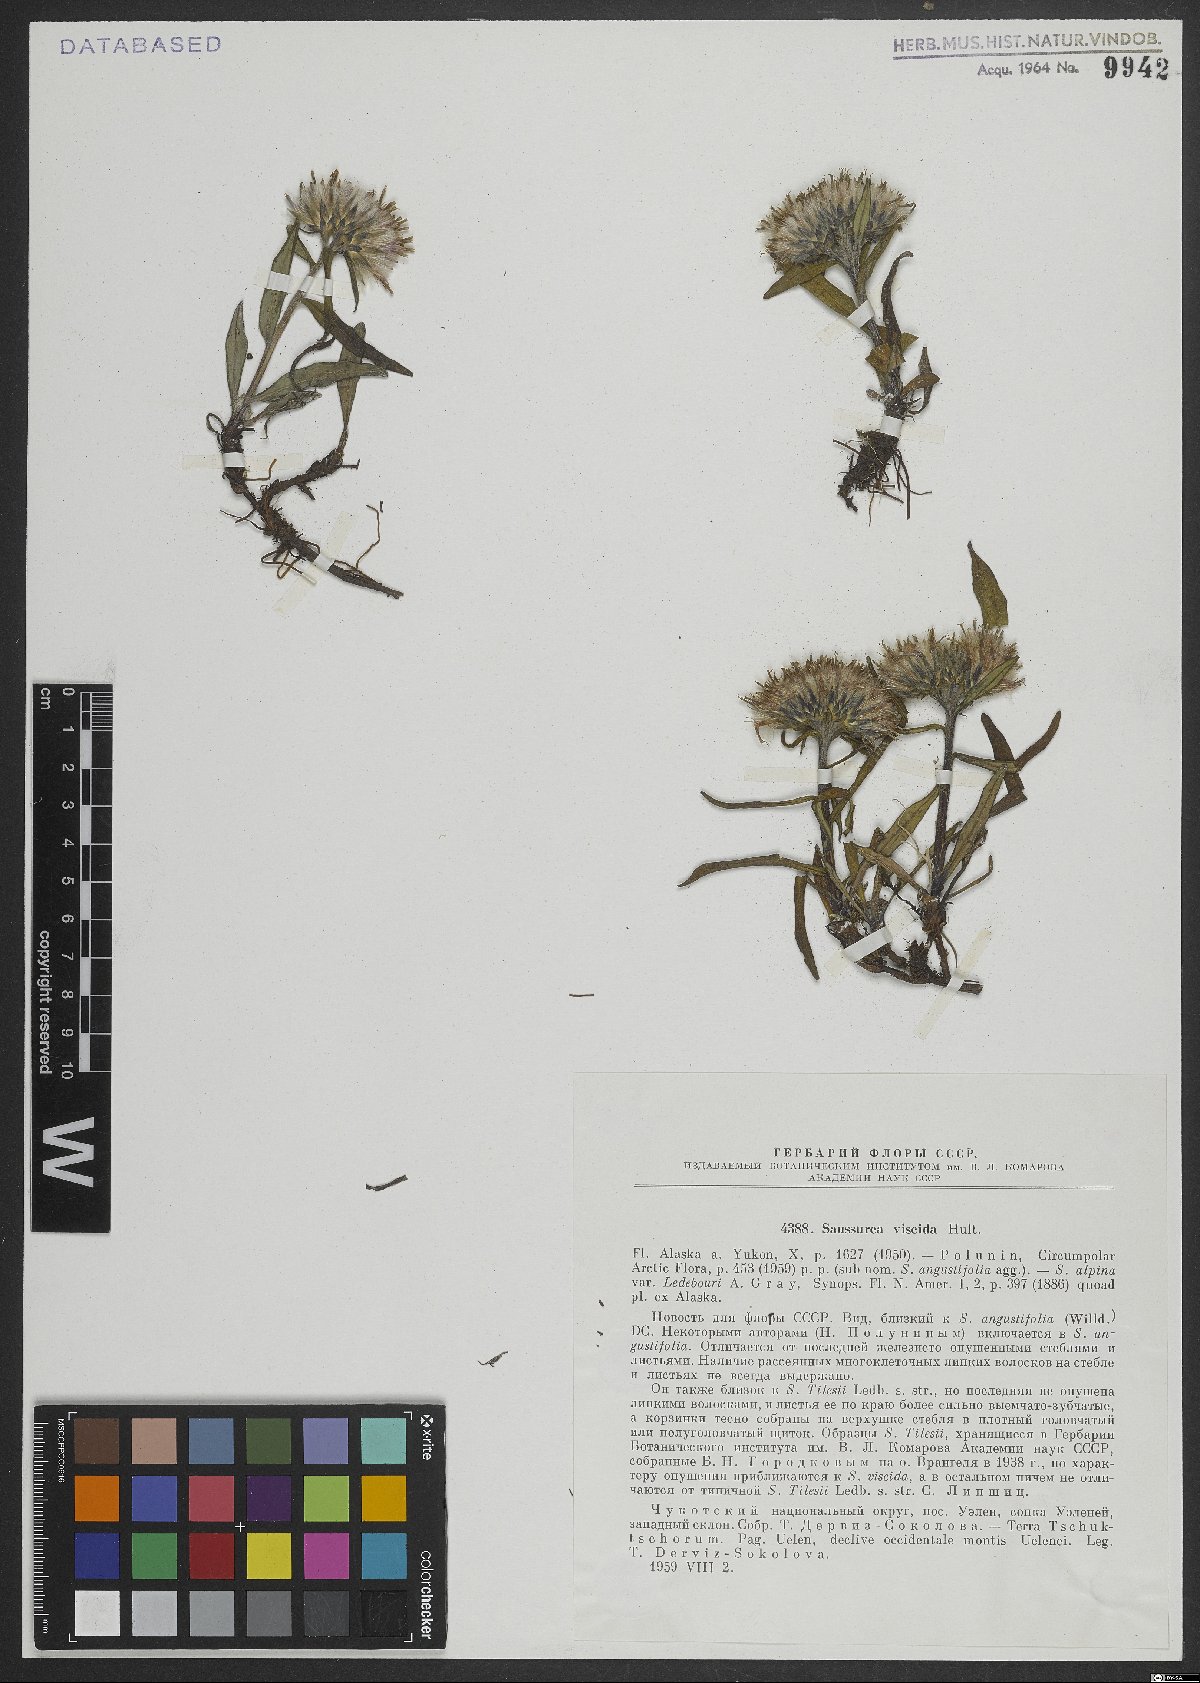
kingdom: Plantae
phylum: Tracheophyta
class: Magnoliopsida
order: Asterales
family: Asteraceae
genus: Saussurea
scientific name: Saussurea angustifolia
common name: Common saussurea
